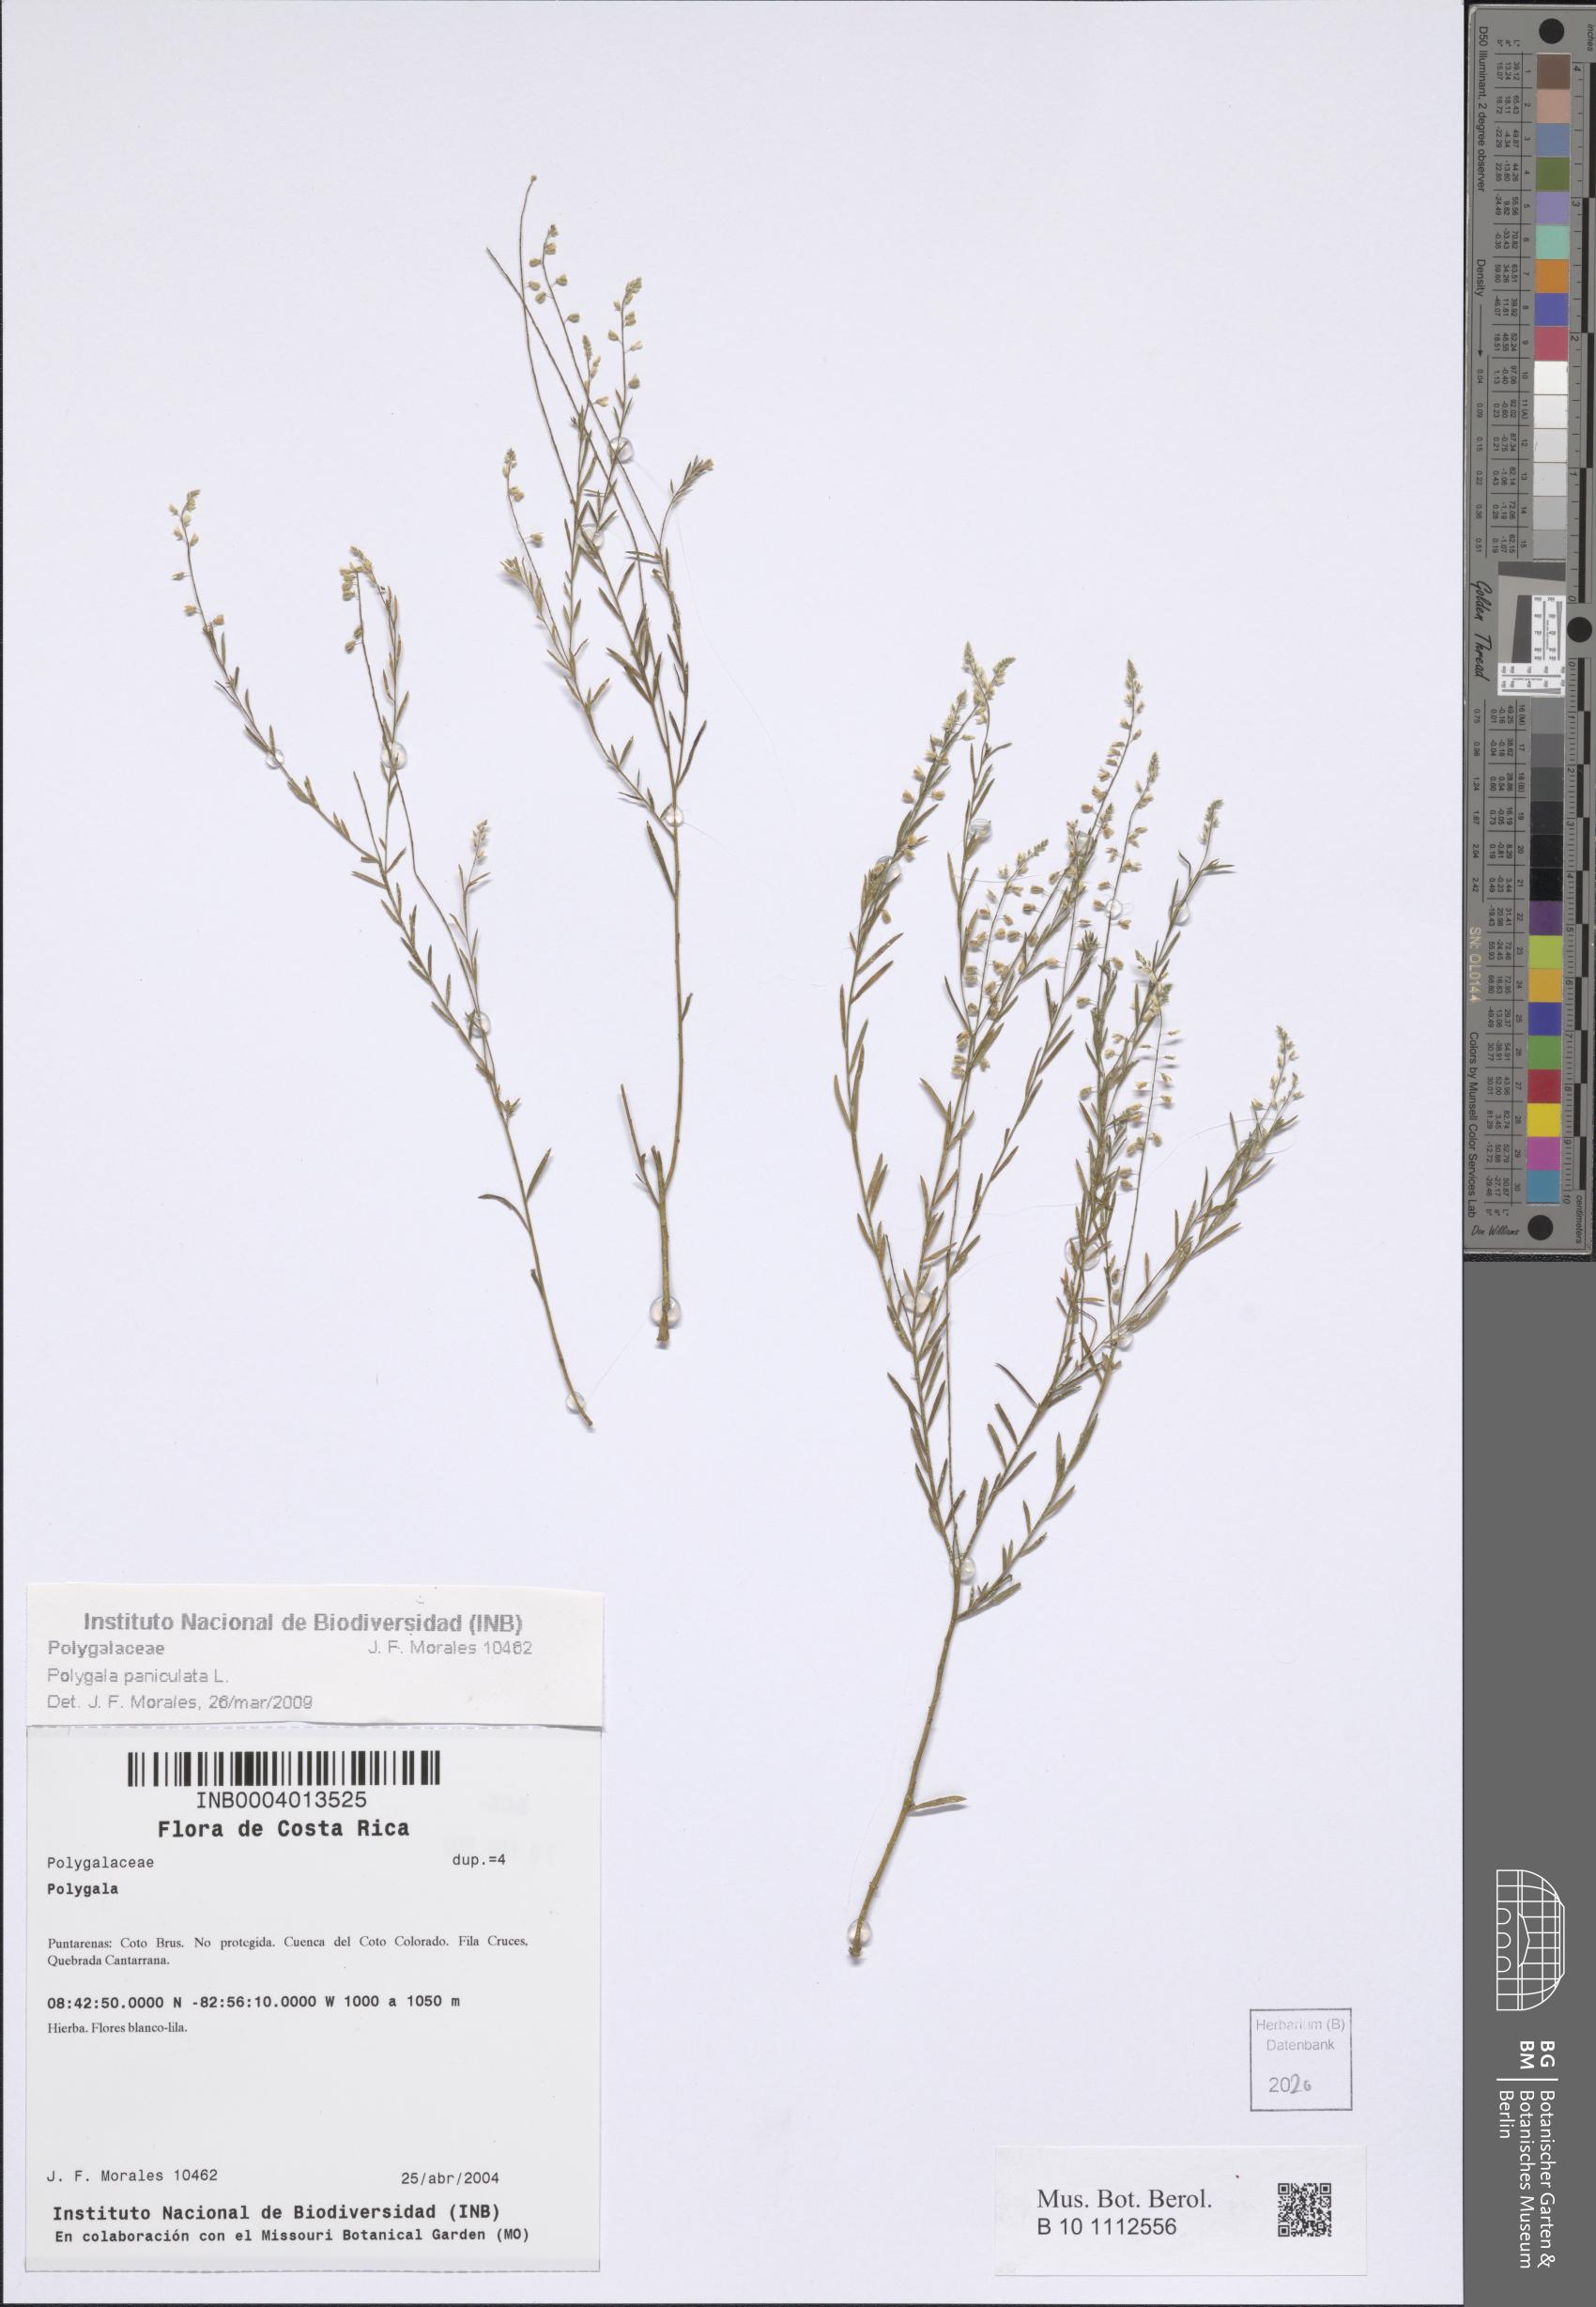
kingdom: Plantae
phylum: Tracheophyta
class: Magnoliopsida
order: Fabales
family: Polygalaceae
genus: Polygala
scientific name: Polygala exilis
